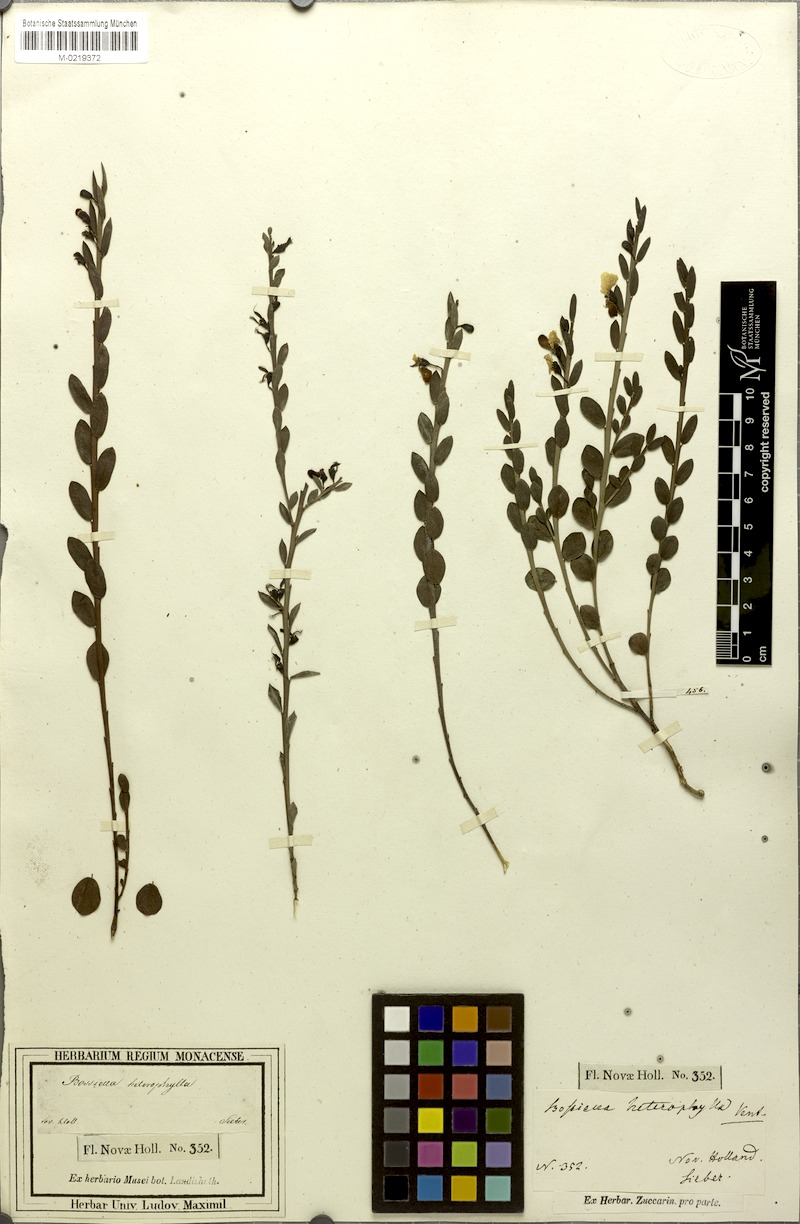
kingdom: Plantae
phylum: Tracheophyta
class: Magnoliopsida
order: Fabales
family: Fabaceae
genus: Bossiaea
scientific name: Bossiaea heterophylla
